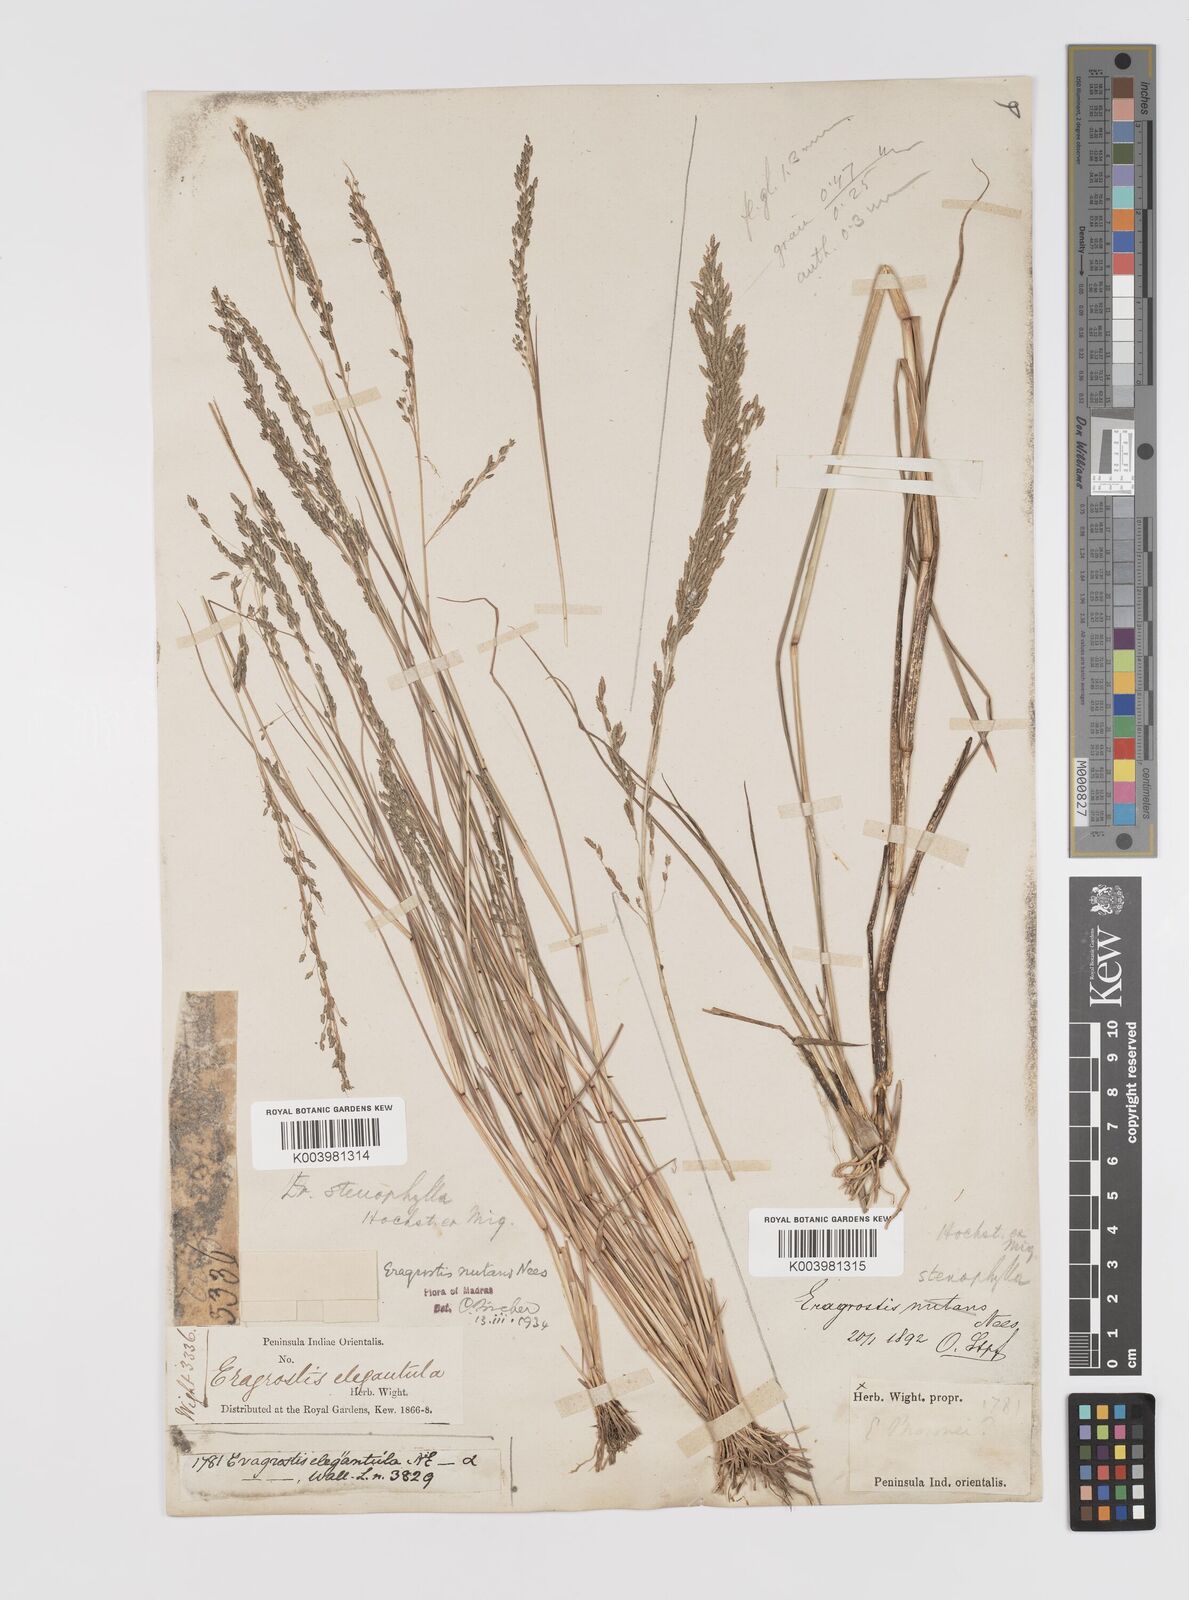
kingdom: Plantae
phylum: Tracheophyta
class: Liliopsida
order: Poales
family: Poaceae
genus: Eragrostis
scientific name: Eragrostis gangetica
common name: Slimflower lovegrass
